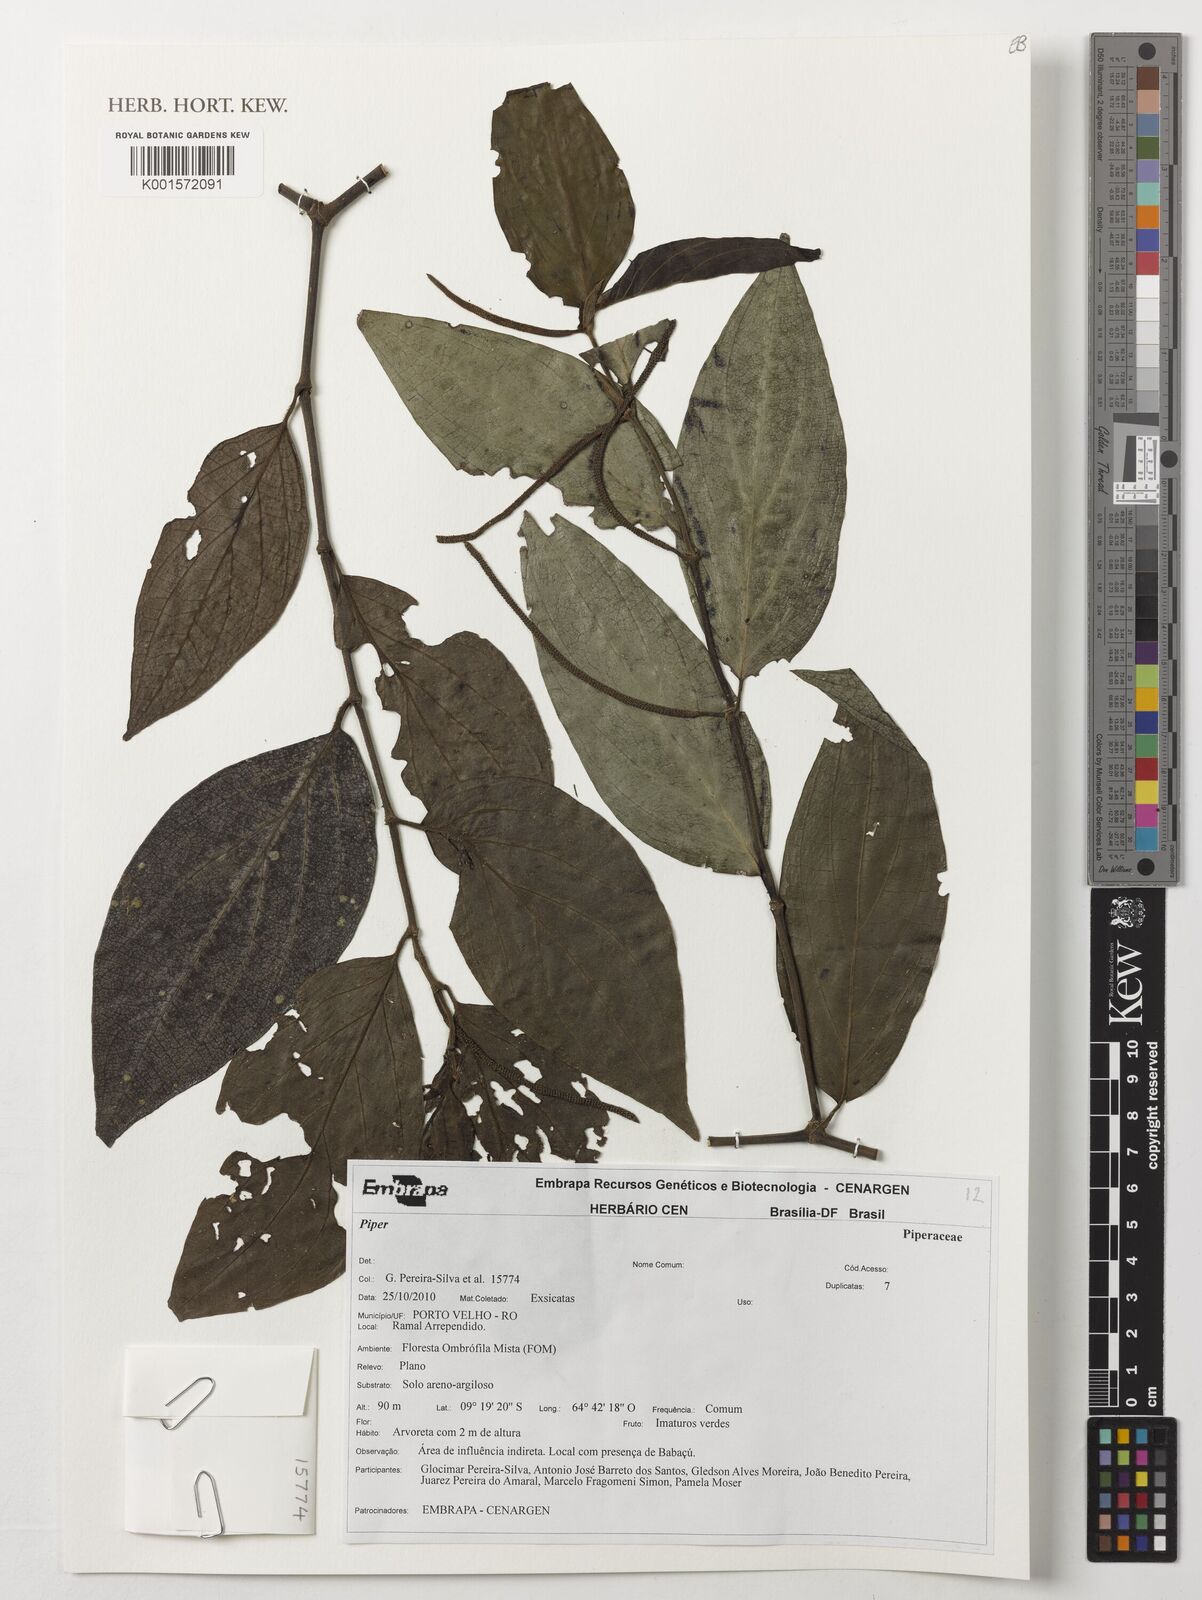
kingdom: Plantae
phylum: Tracheophyta
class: Magnoliopsida
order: Piperales
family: Piperaceae
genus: Piper
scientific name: Piper
